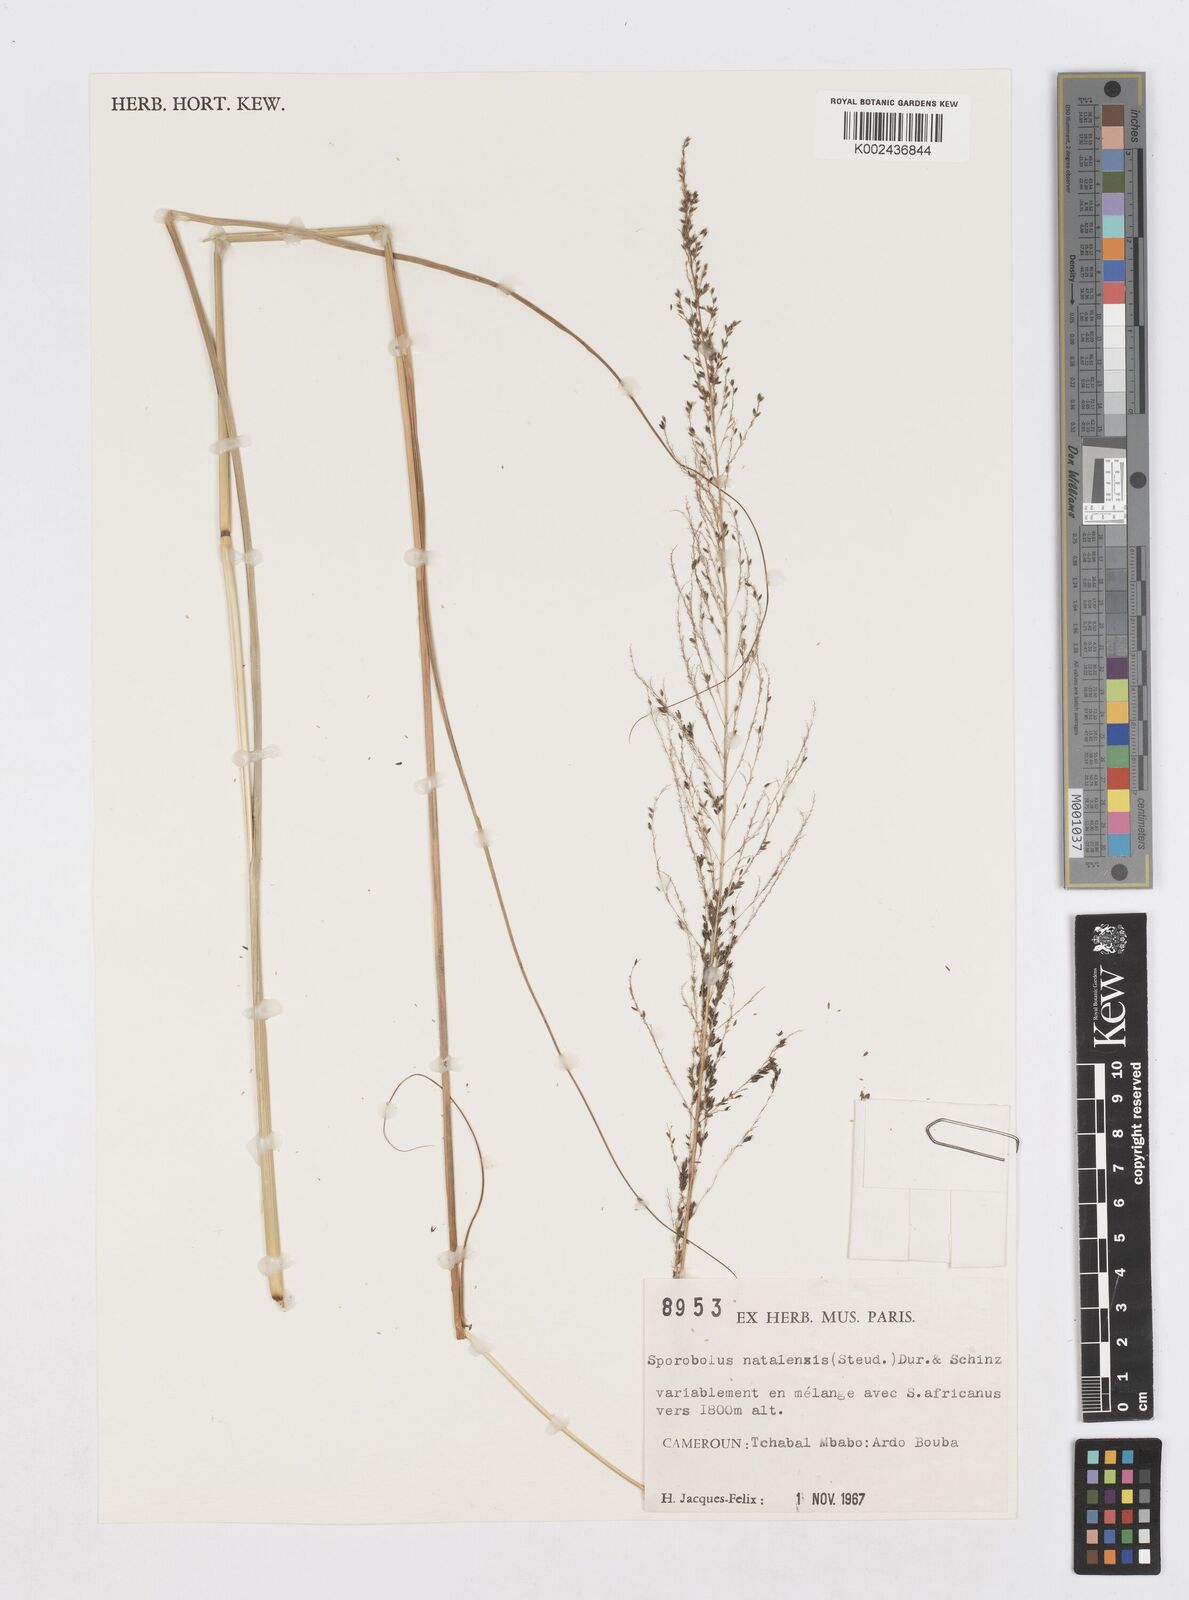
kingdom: Plantae
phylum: Tracheophyta
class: Liliopsida
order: Poales
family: Poaceae
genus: Sporobolus
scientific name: Sporobolus natalensis
